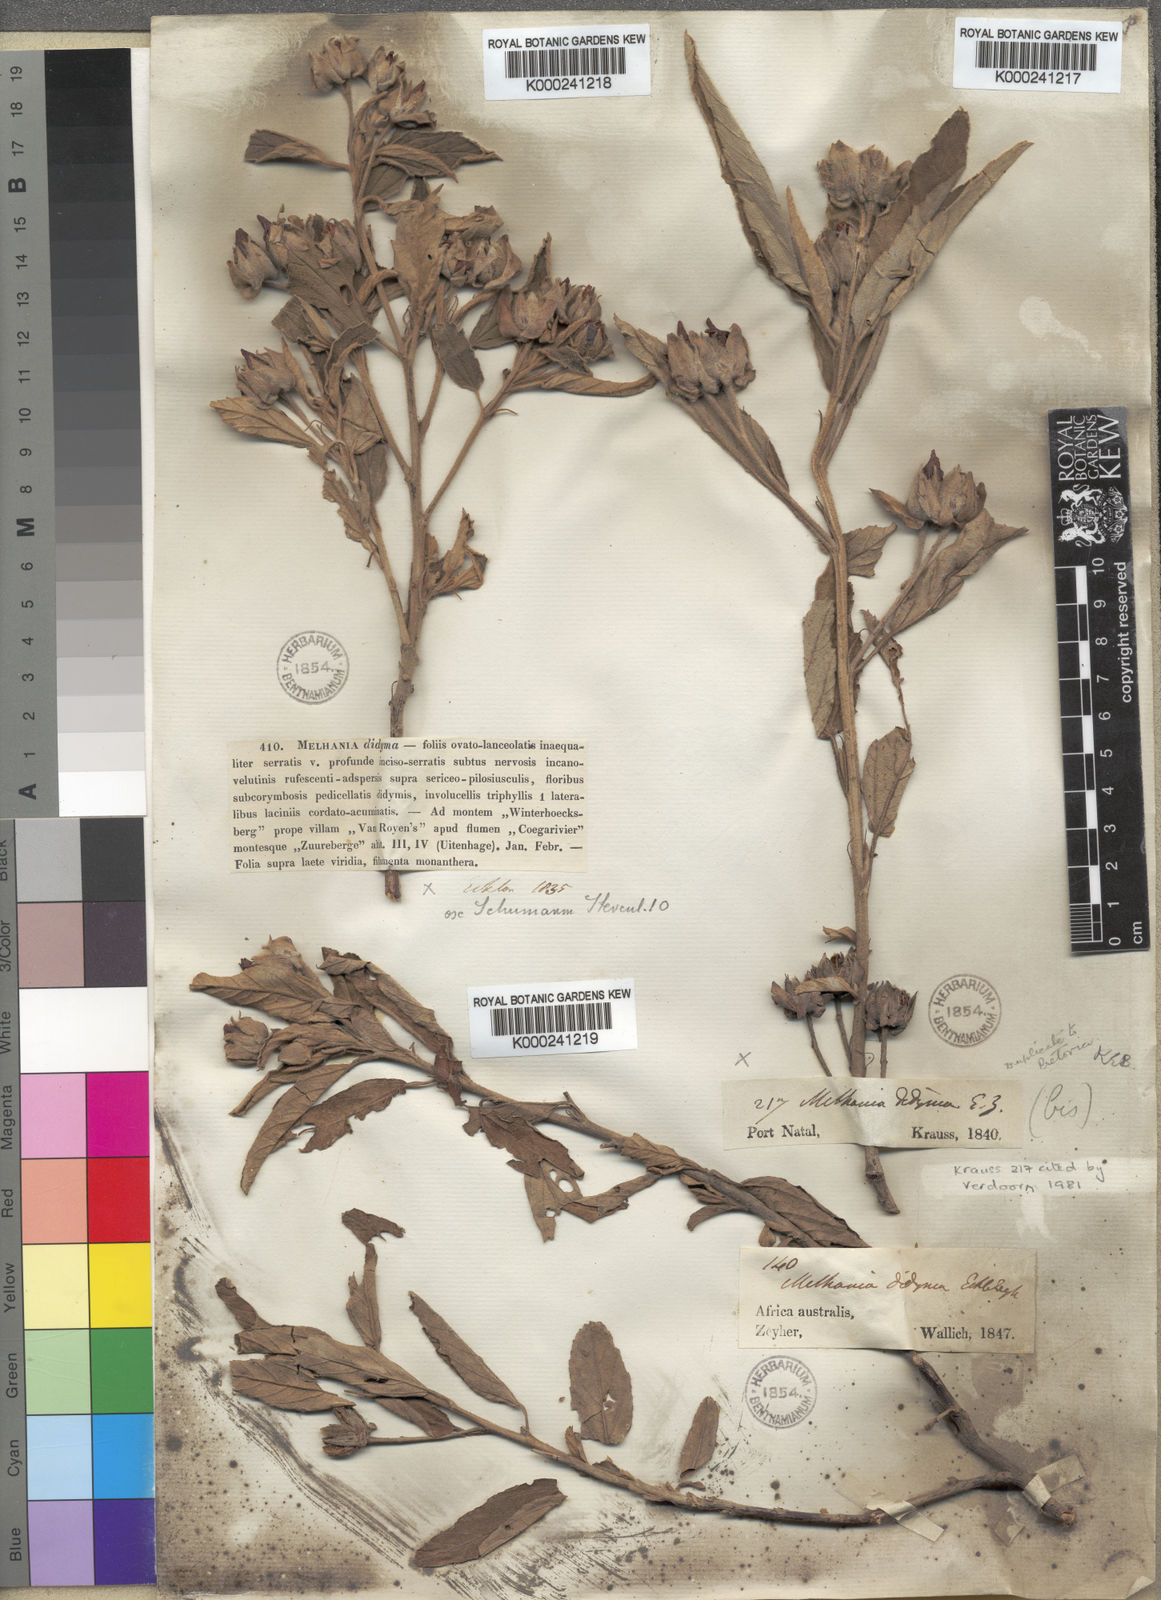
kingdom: Plantae
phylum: Tracheophyta
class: Magnoliopsida
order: Malvales
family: Malvaceae
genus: Melhania
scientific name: Melhania didyma
